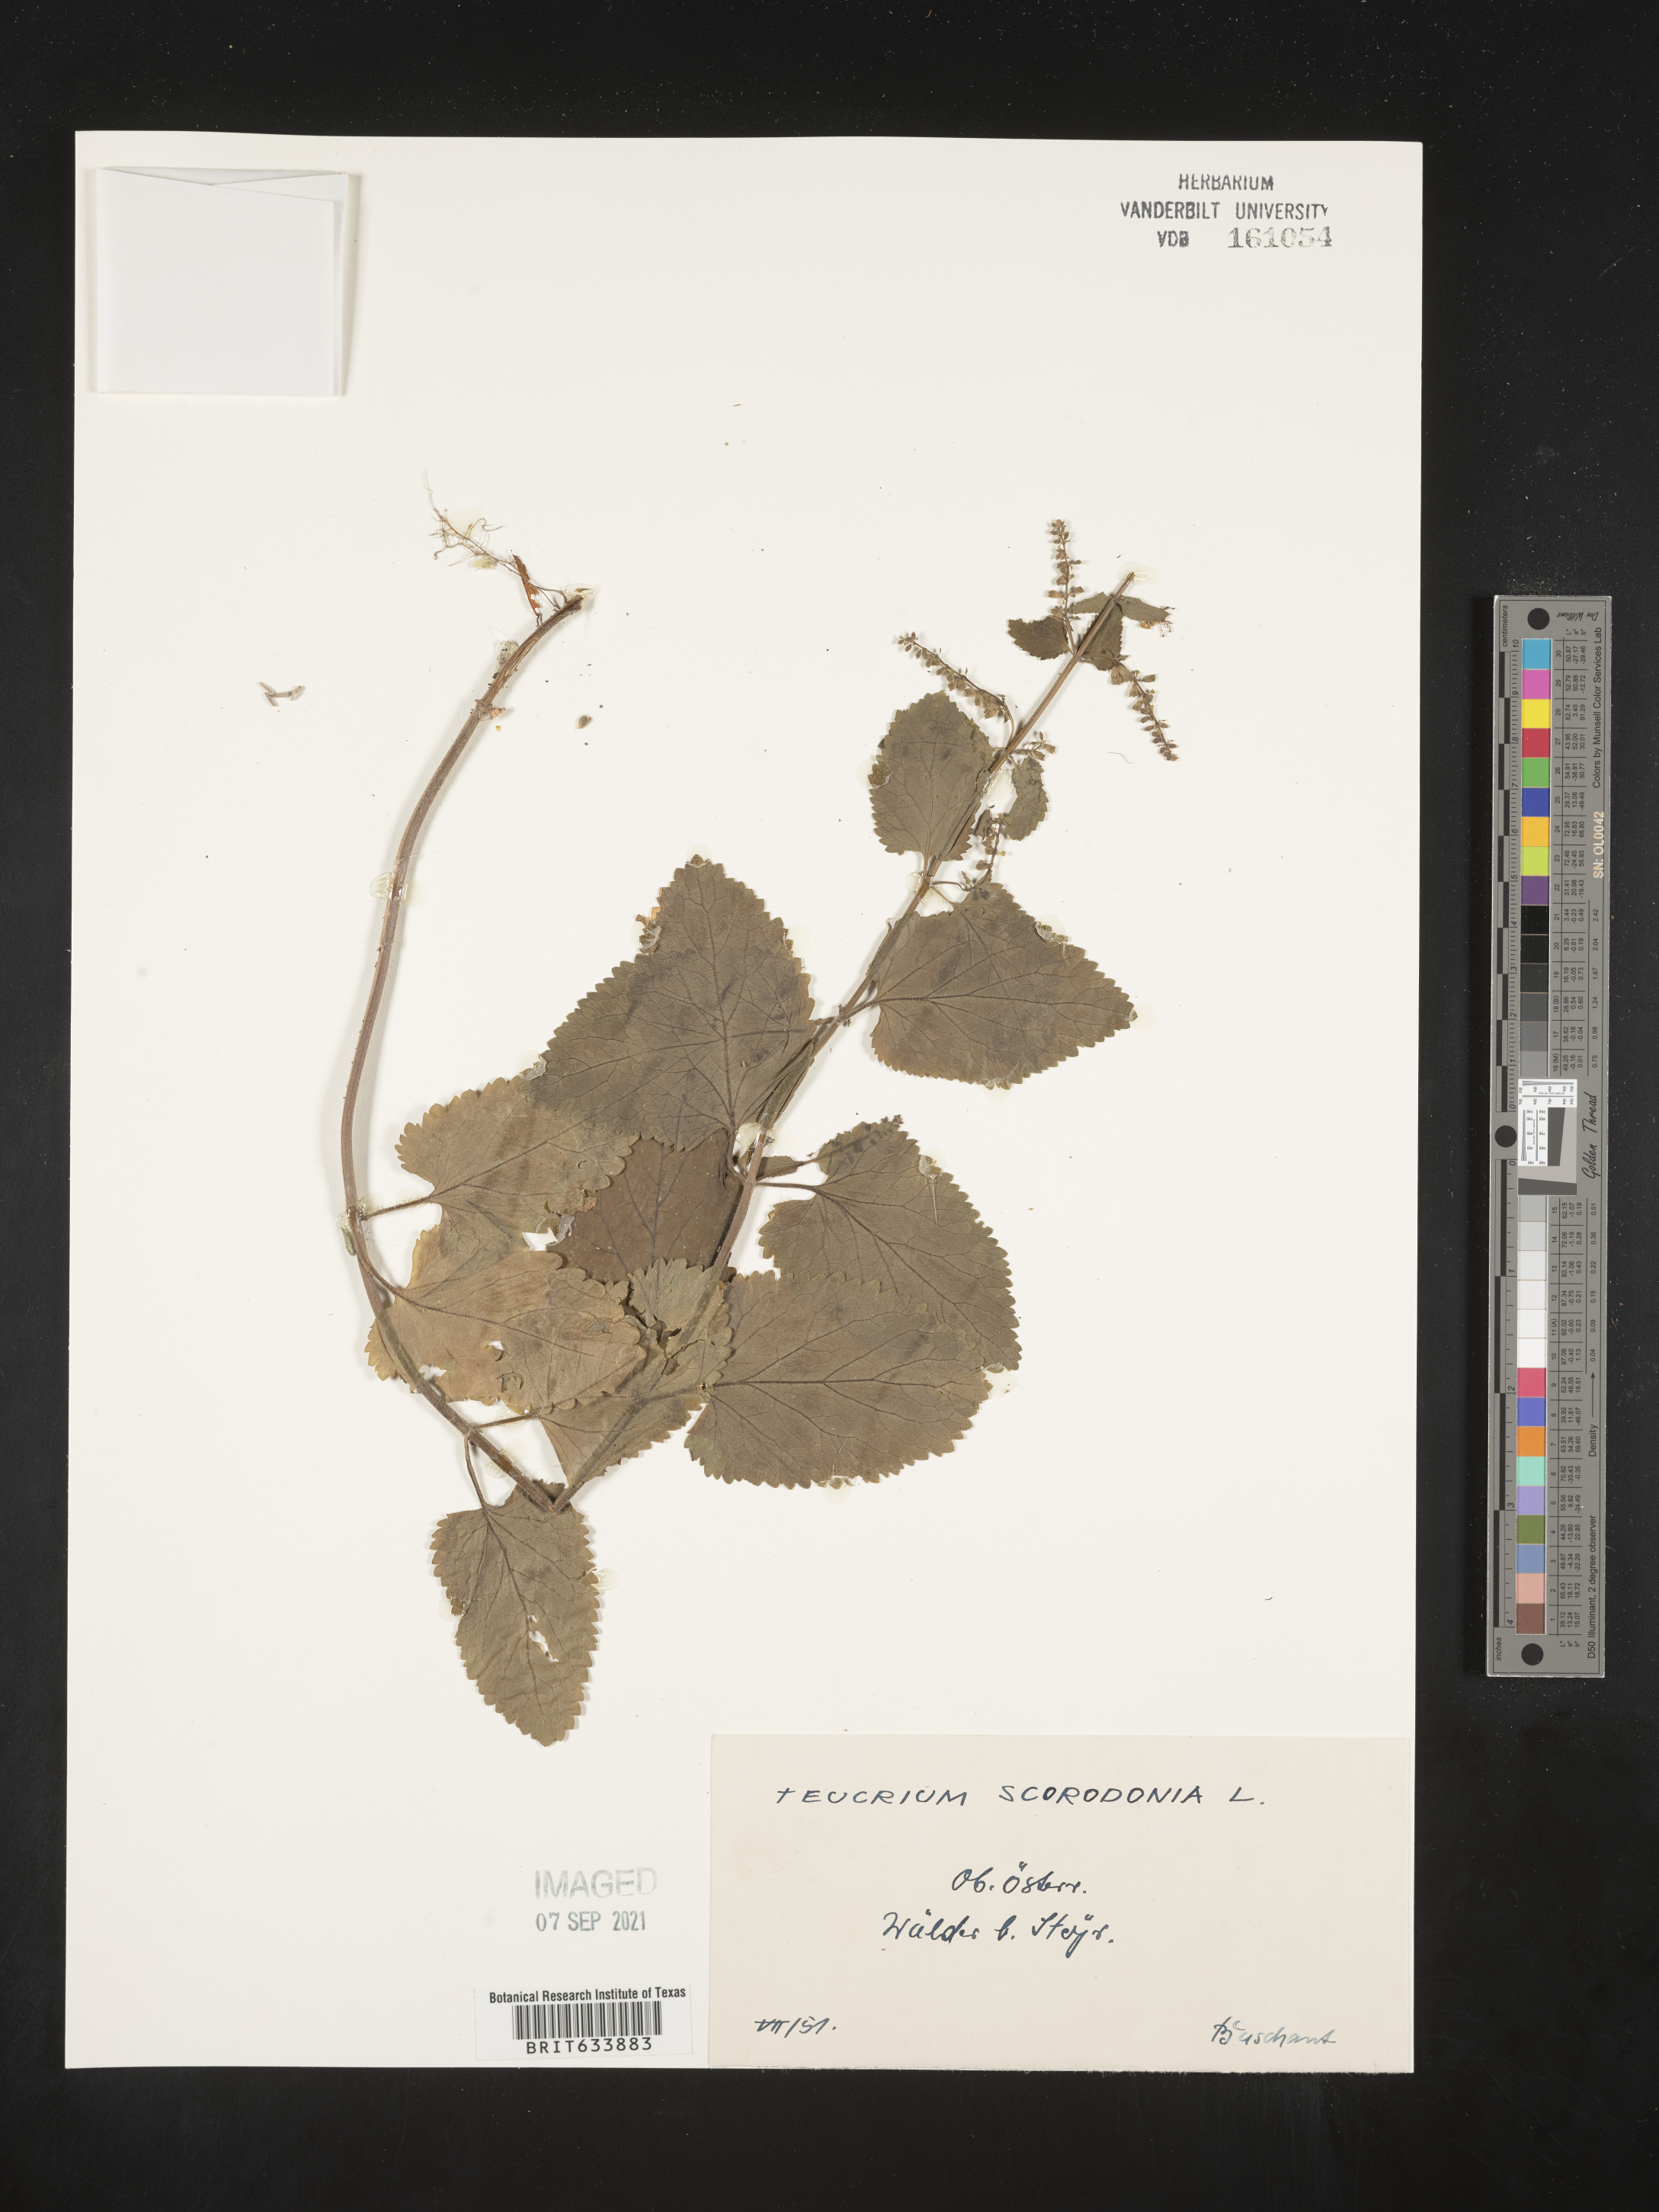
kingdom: Plantae
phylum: Tracheophyta
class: Magnoliopsida
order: Lamiales
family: Lamiaceae
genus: Teucrium
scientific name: Teucrium
